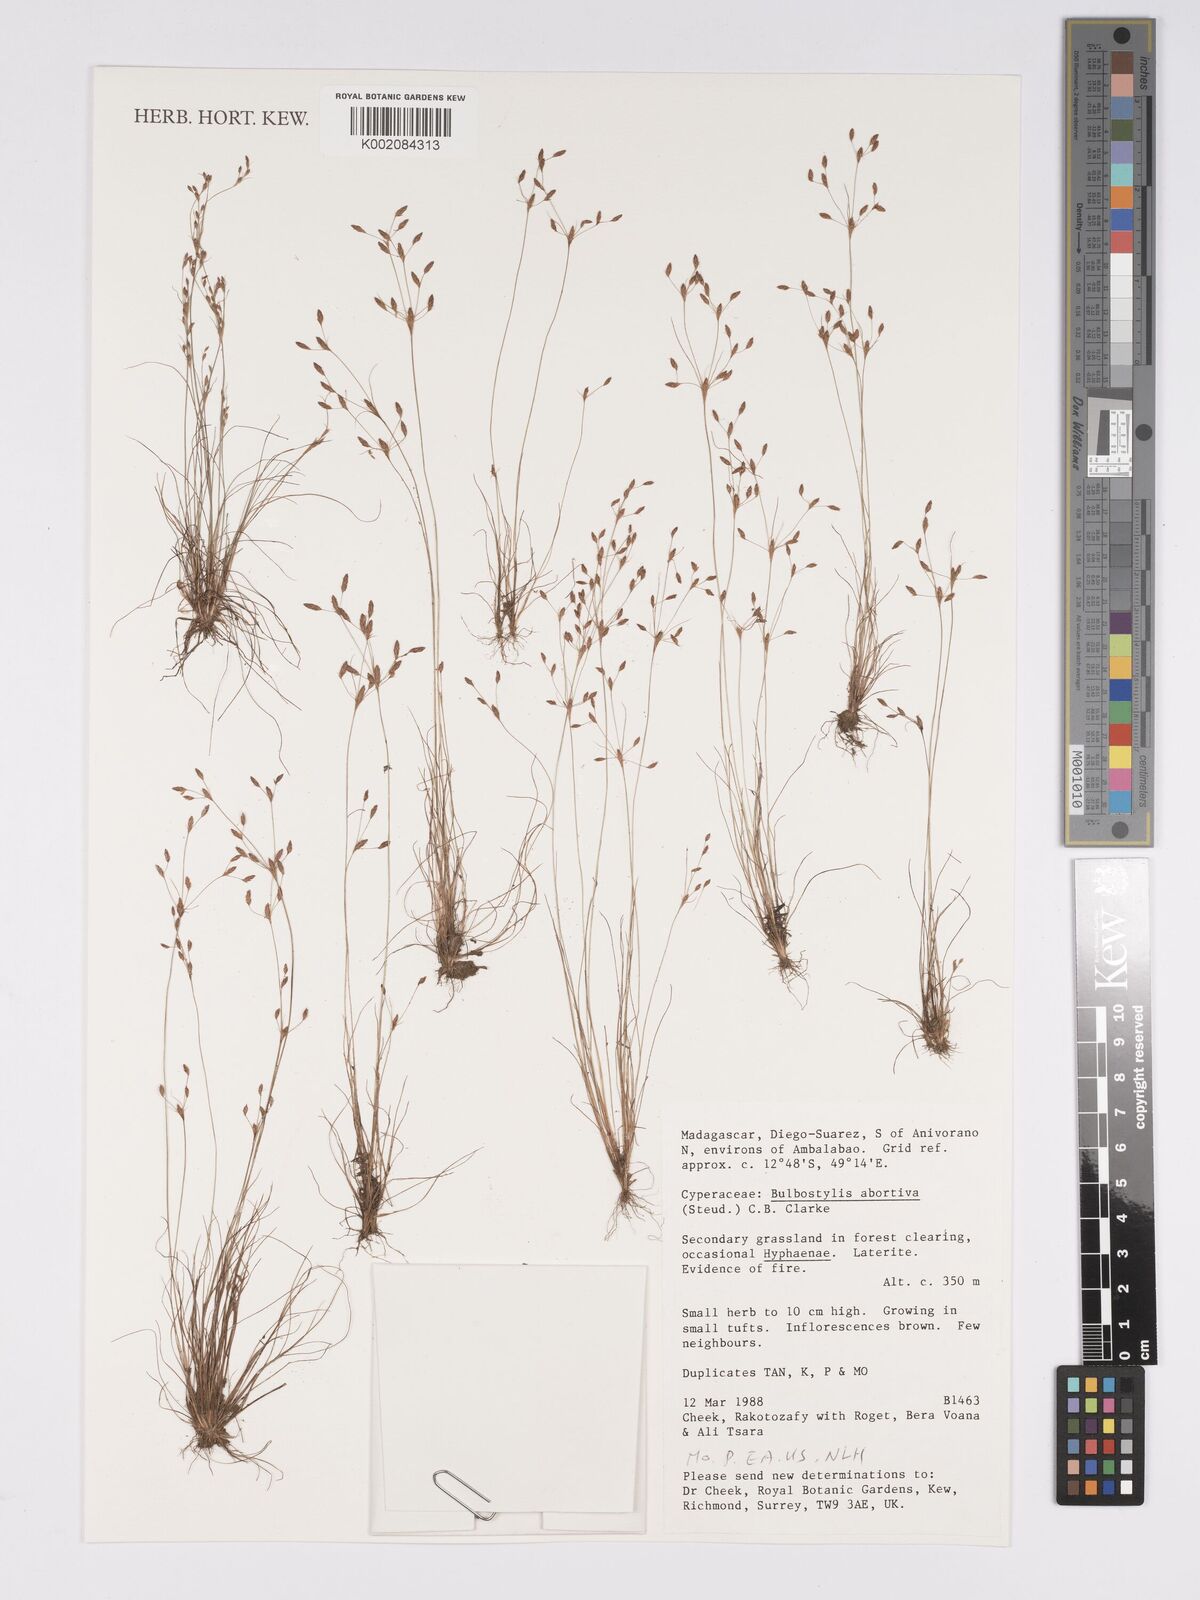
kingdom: Plantae
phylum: Tracheophyta
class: Liliopsida
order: Poales
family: Cyperaceae
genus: Bulbostylis
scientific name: Bulbostylis abortiva
